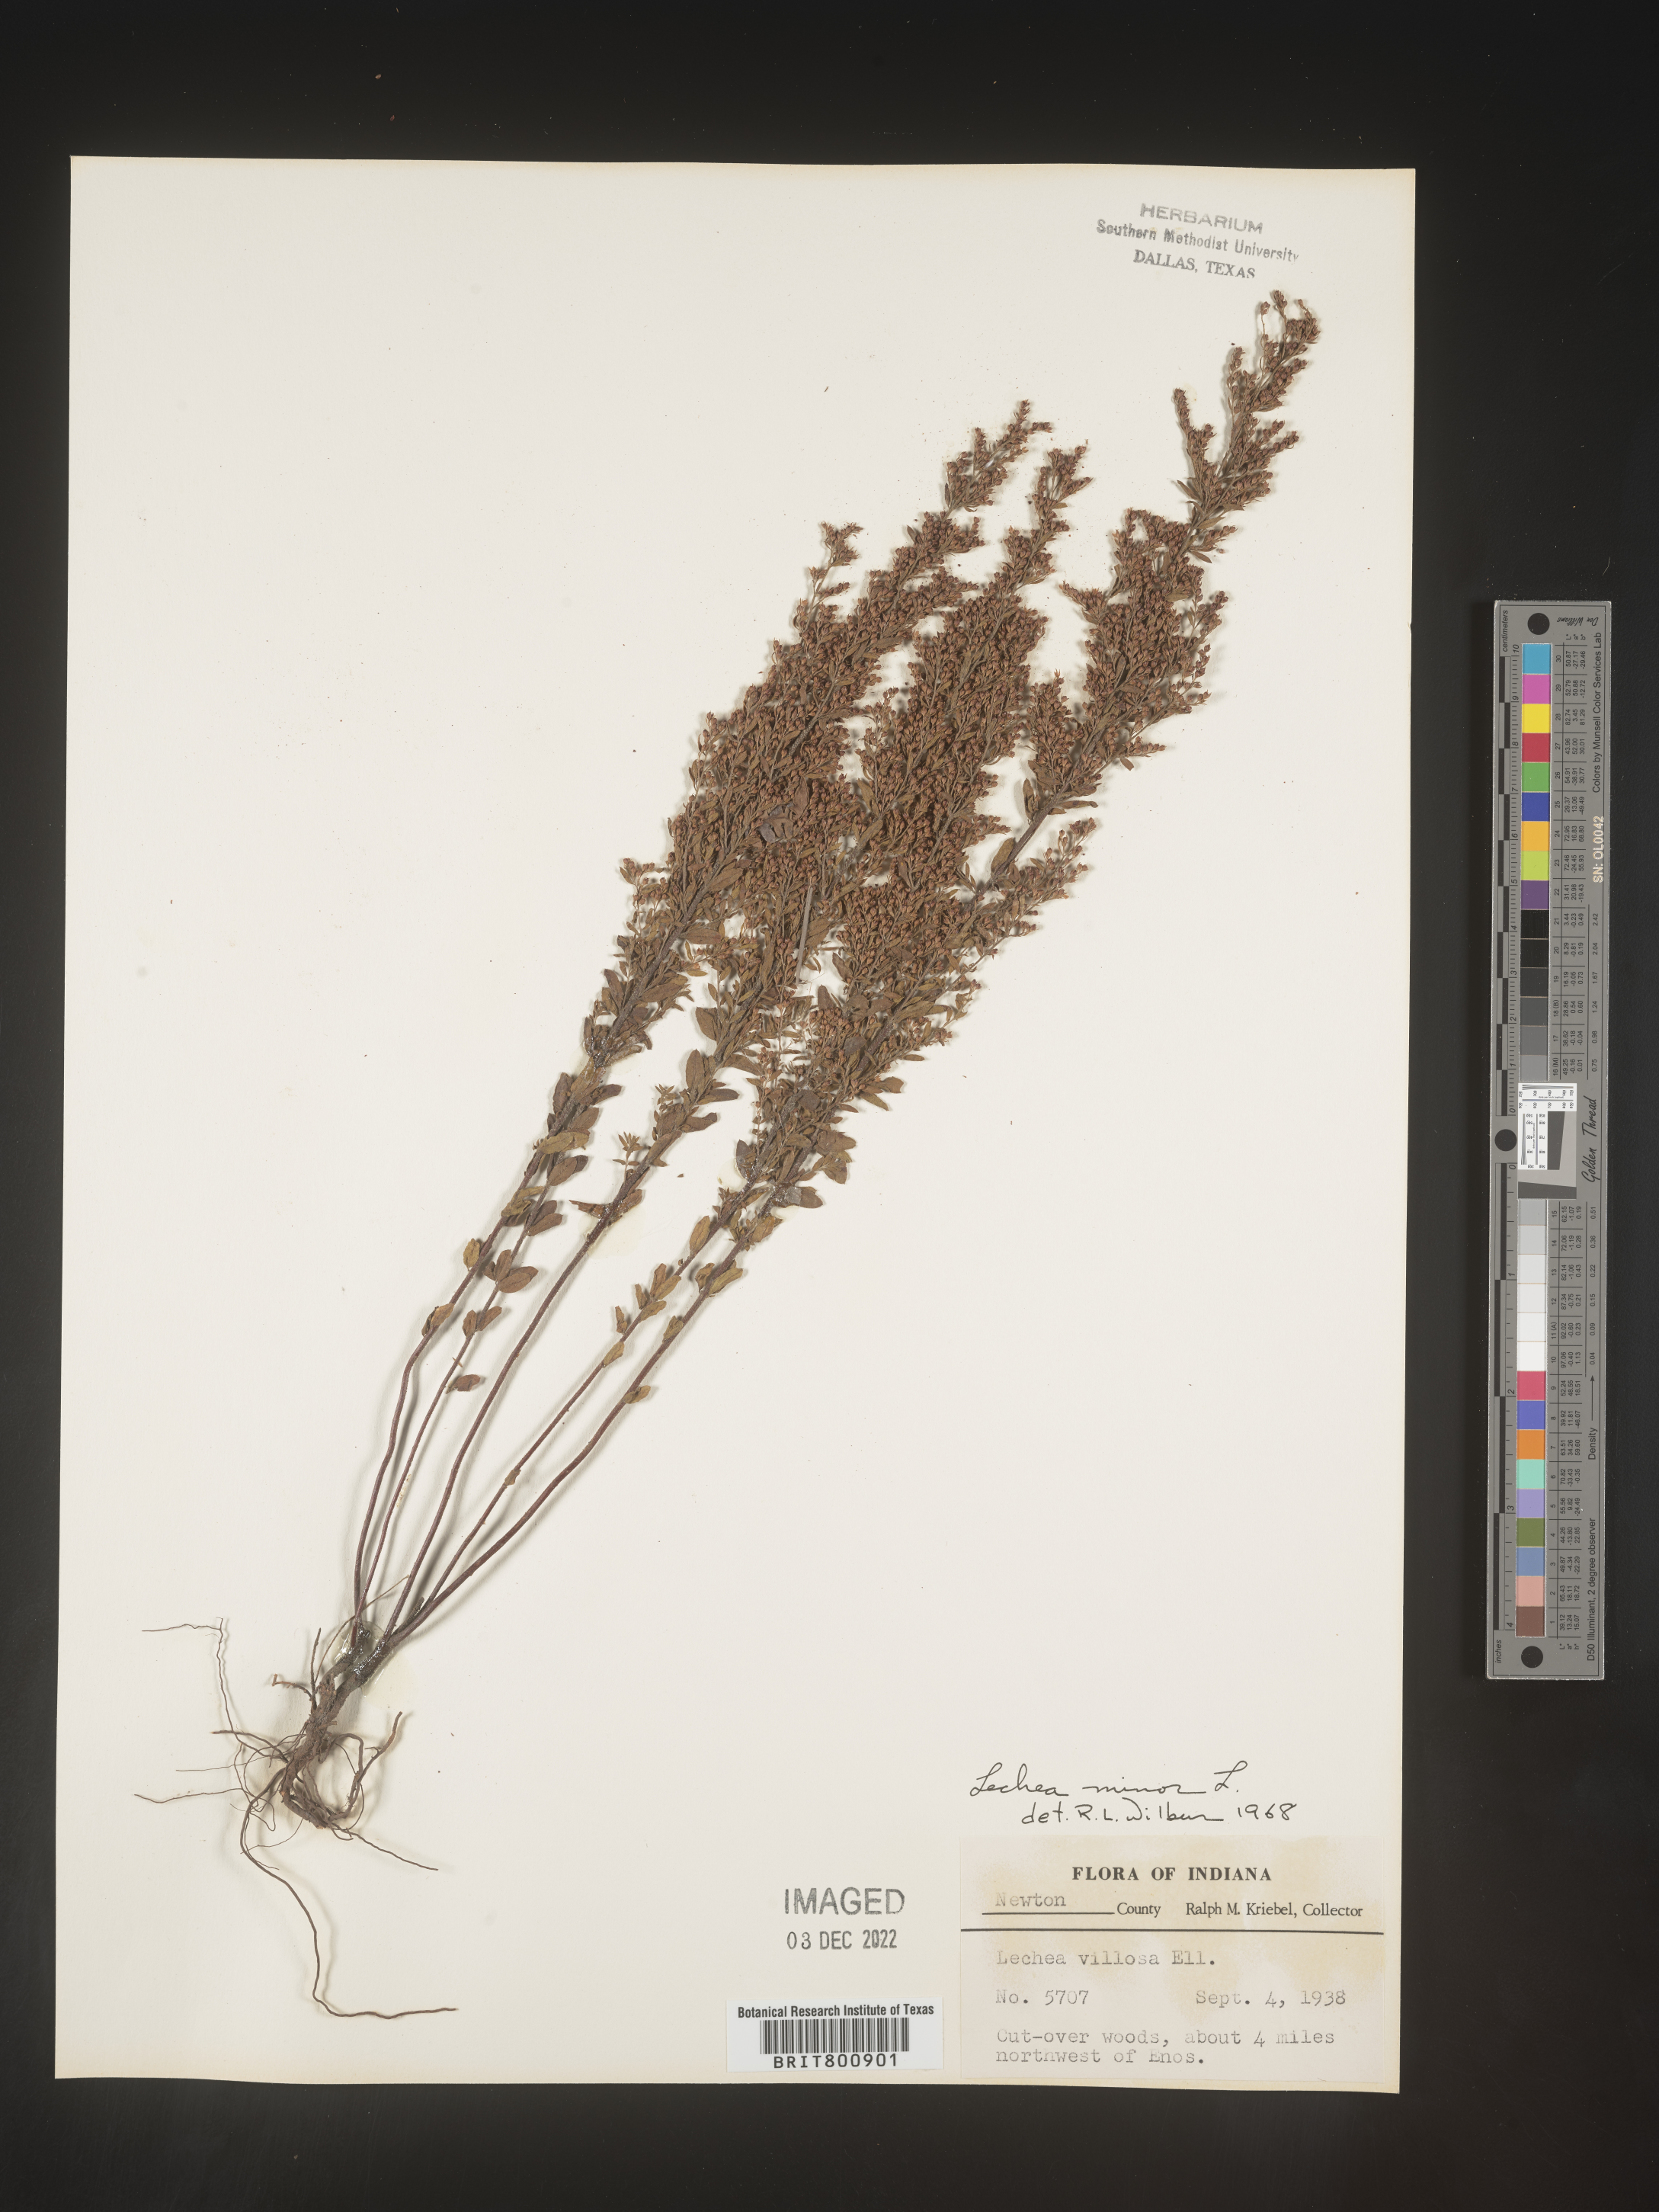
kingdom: Plantae
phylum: Tracheophyta
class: Magnoliopsida
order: Malvales
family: Cistaceae
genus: Lechea
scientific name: Lechea minor
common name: Thyme-leaf pinweed
